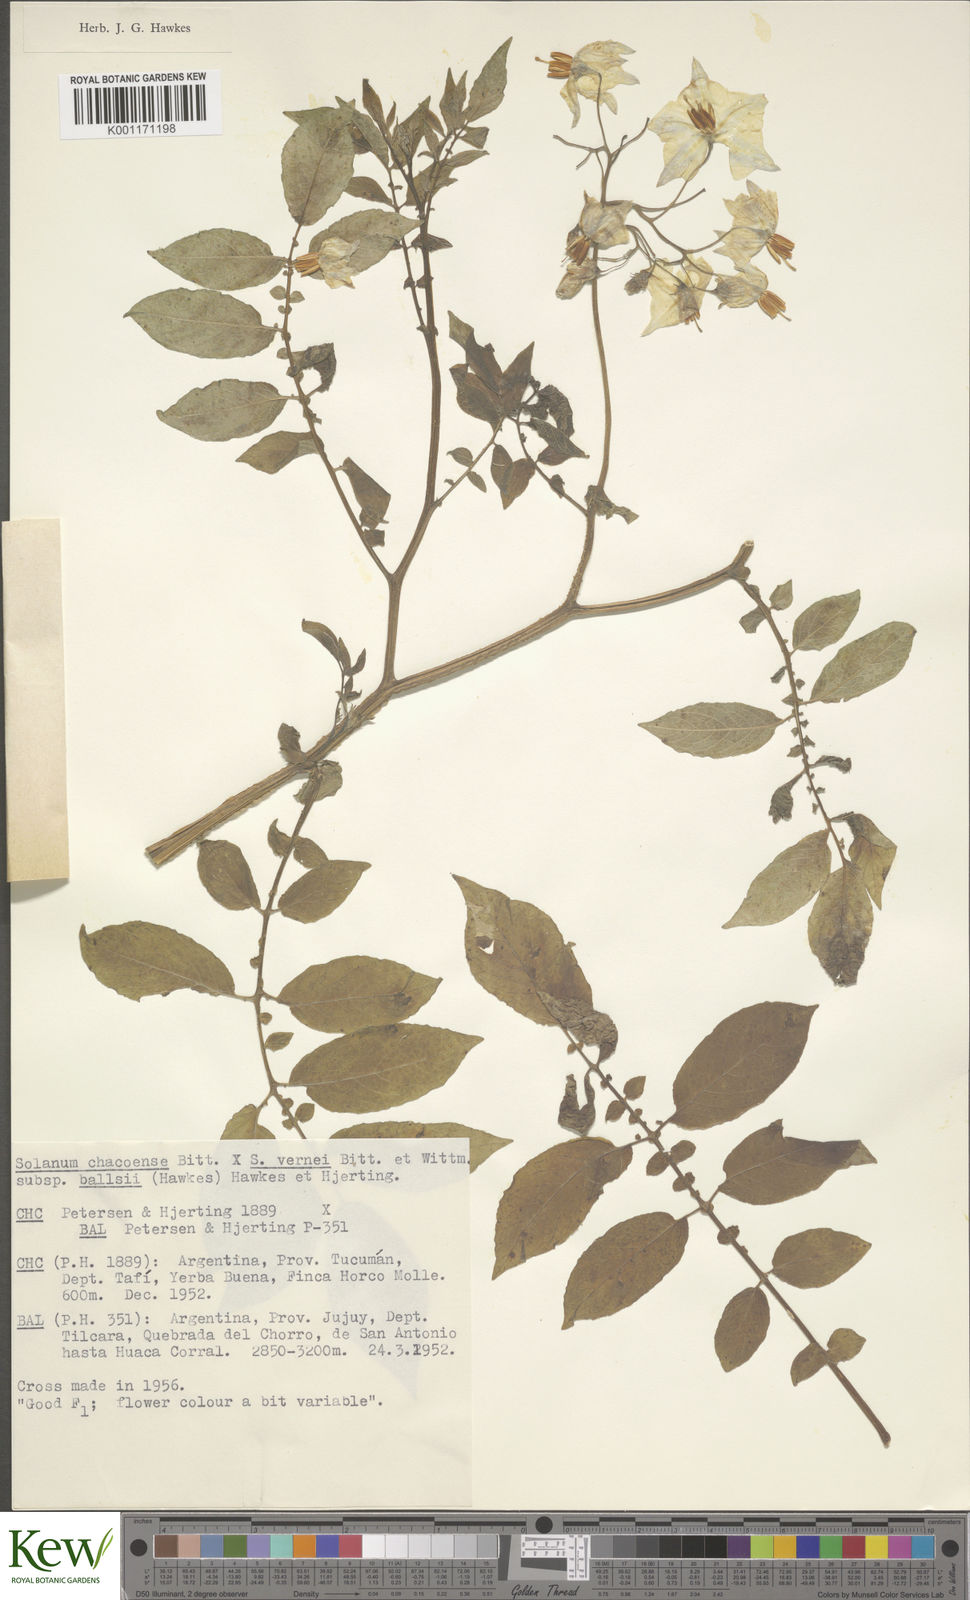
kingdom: Plantae
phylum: Tracheophyta
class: Magnoliopsida
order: Solanales
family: Solanaceae
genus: Solanum
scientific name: Solanum vernei
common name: Purple potato
